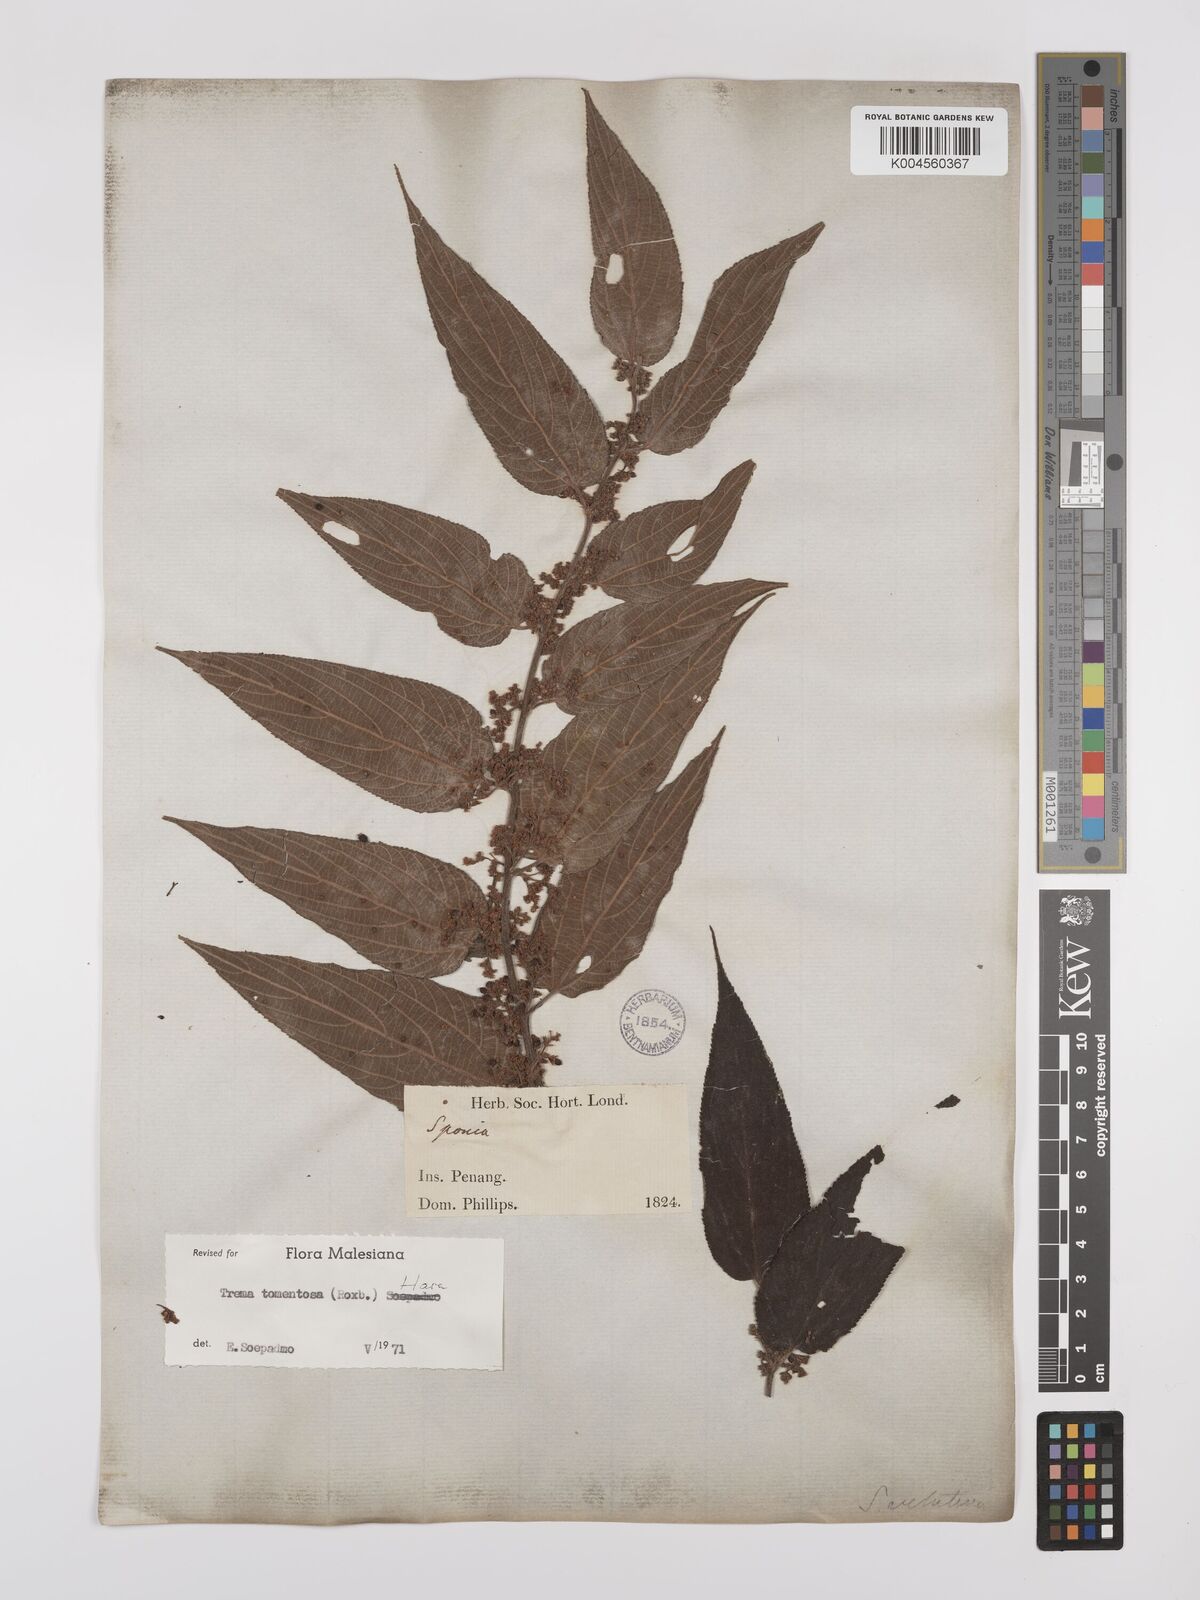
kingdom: Plantae
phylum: Tracheophyta
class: Magnoliopsida
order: Rosales
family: Cannabaceae
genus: Trema
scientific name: Trema tomentosum
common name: Peach-leaf-poisonbush
